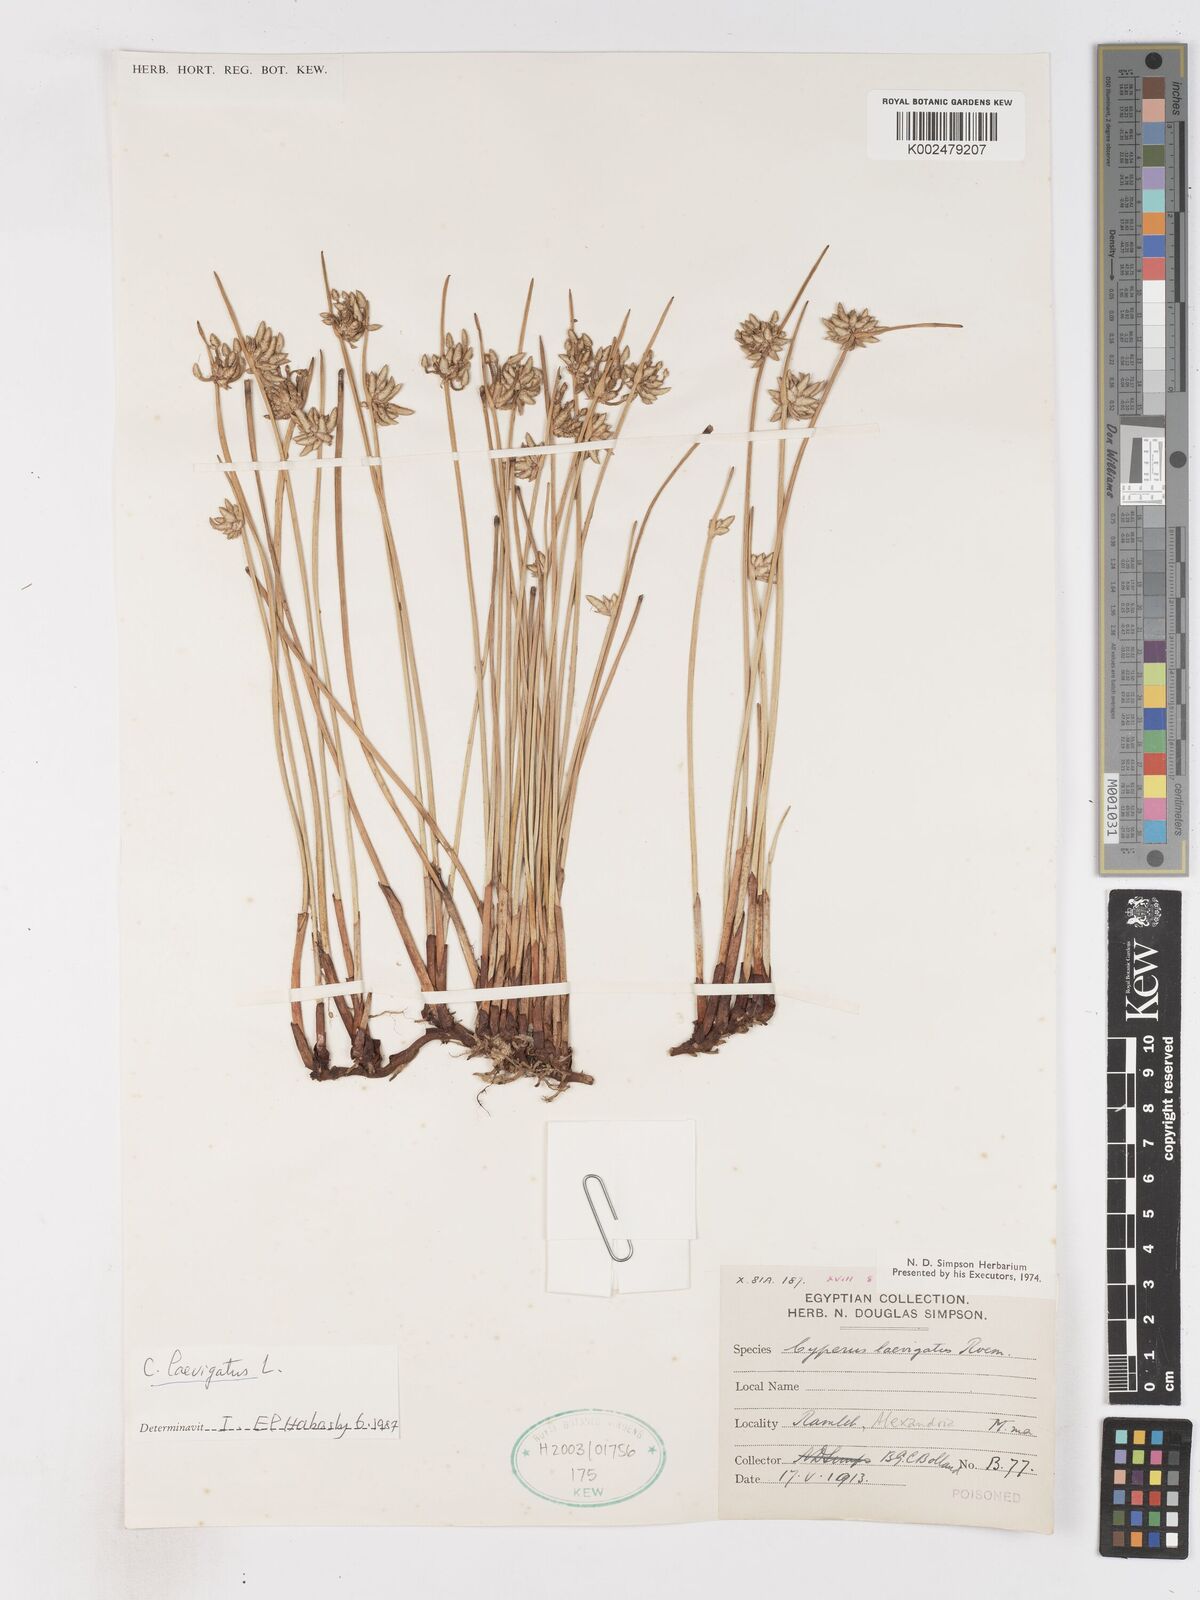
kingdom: Plantae
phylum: Tracheophyta
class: Liliopsida
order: Poales
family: Cyperaceae
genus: Cyperus
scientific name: Cyperus laevigatus
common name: Smooth flat sedge
